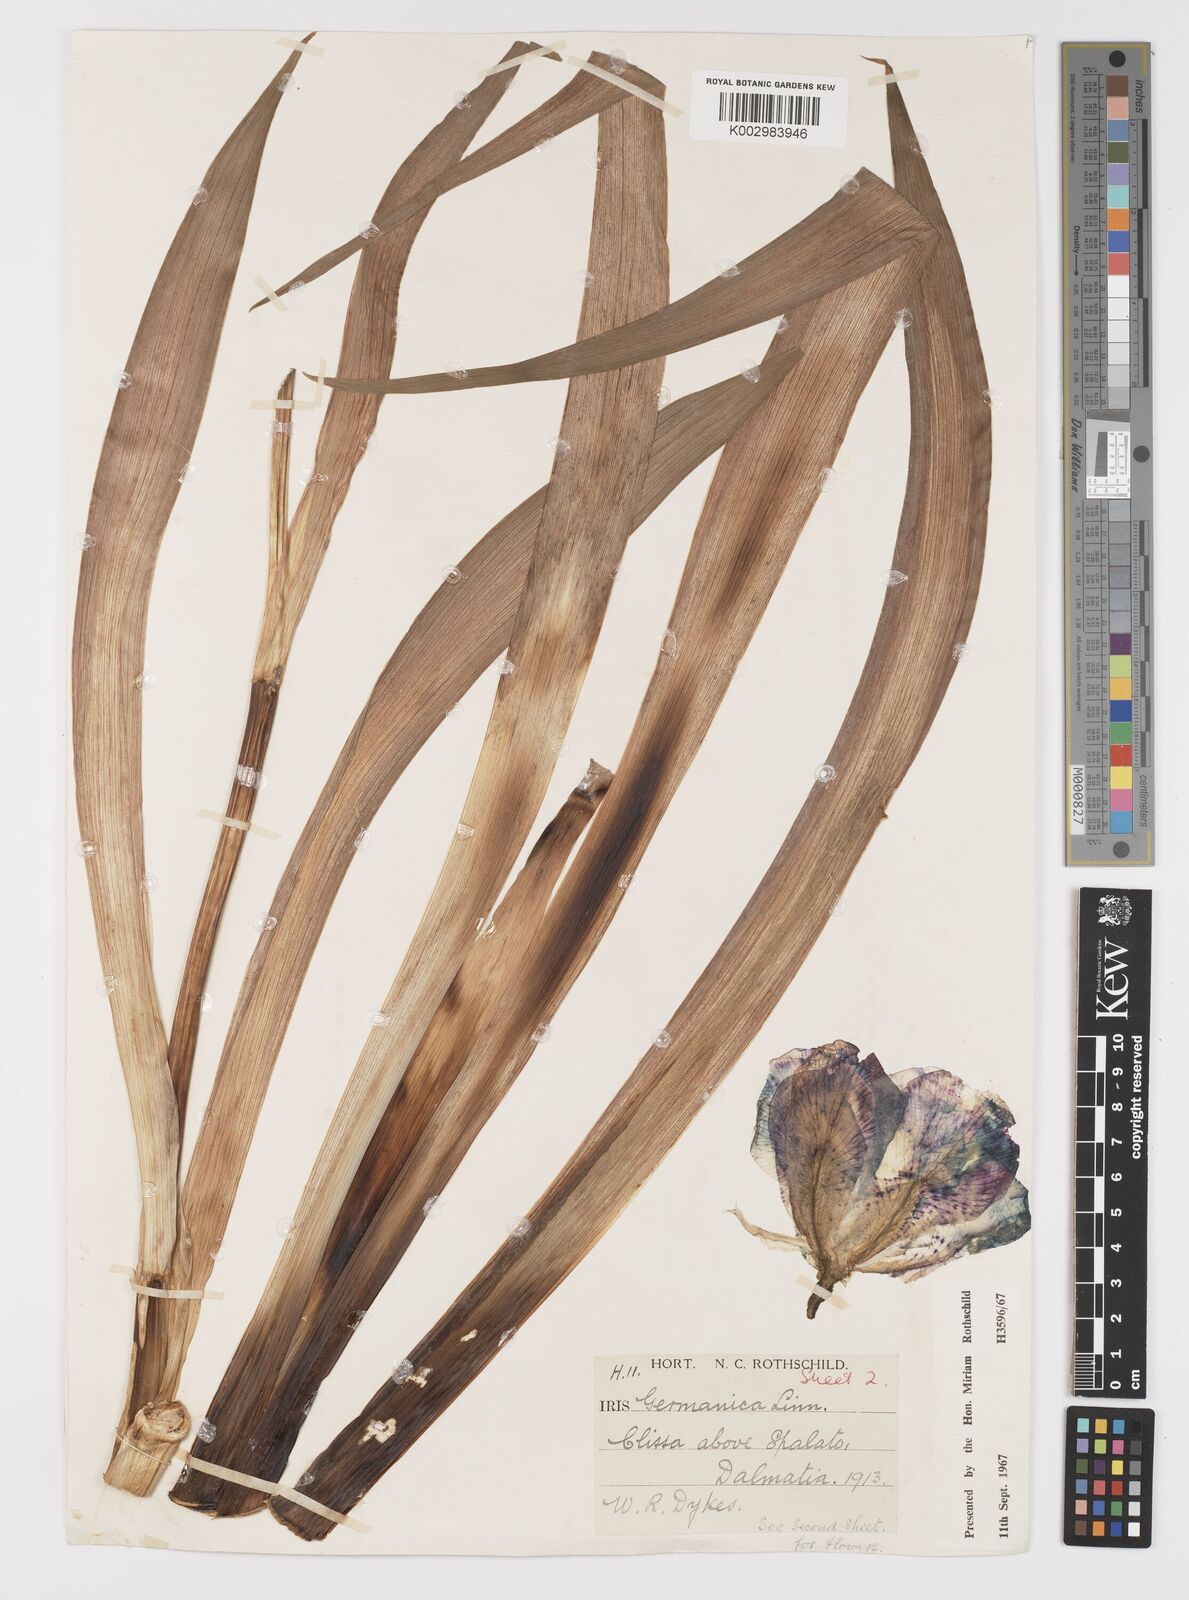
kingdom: Plantae
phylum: Tracheophyta
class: Liliopsida
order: Asparagales
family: Iridaceae
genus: Iris
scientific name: Iris germanica
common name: German iris
